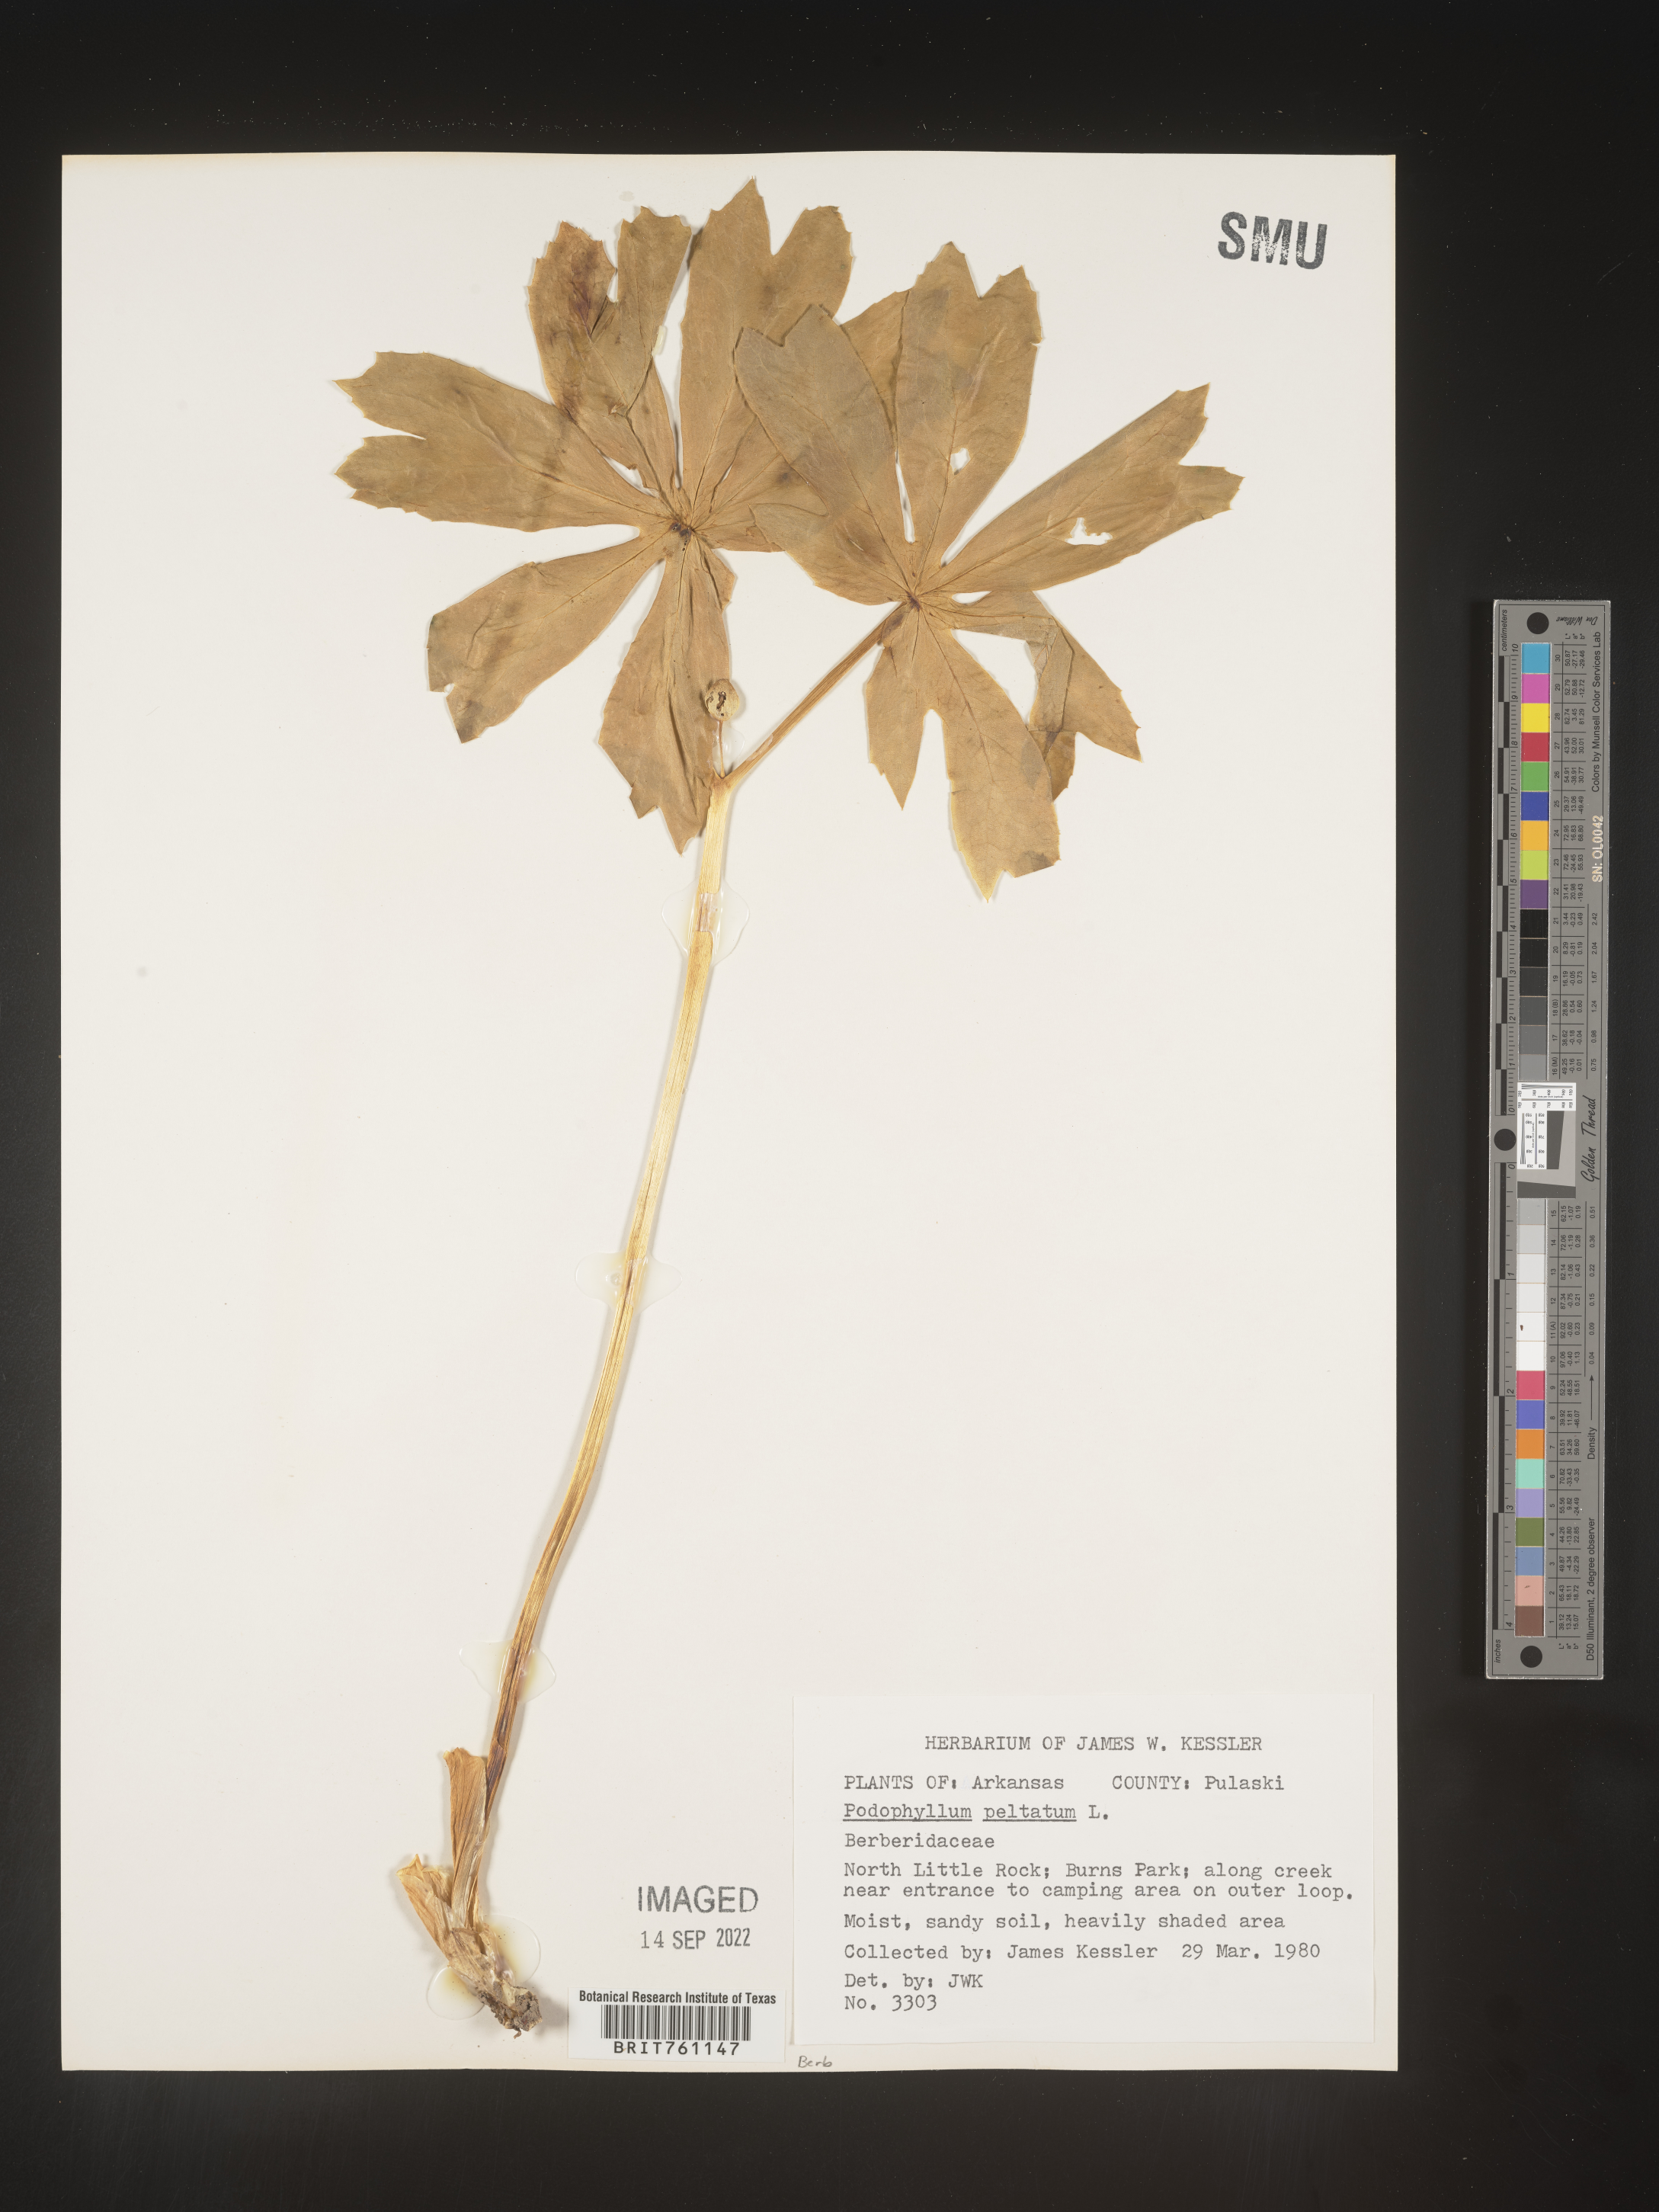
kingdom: Plantae
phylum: Tracheophyta
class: Magnoliopsida
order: Ranunculales
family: Berberidaceae
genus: Podophyllum
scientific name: Podophyllum peltatum
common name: Wild mandrake
